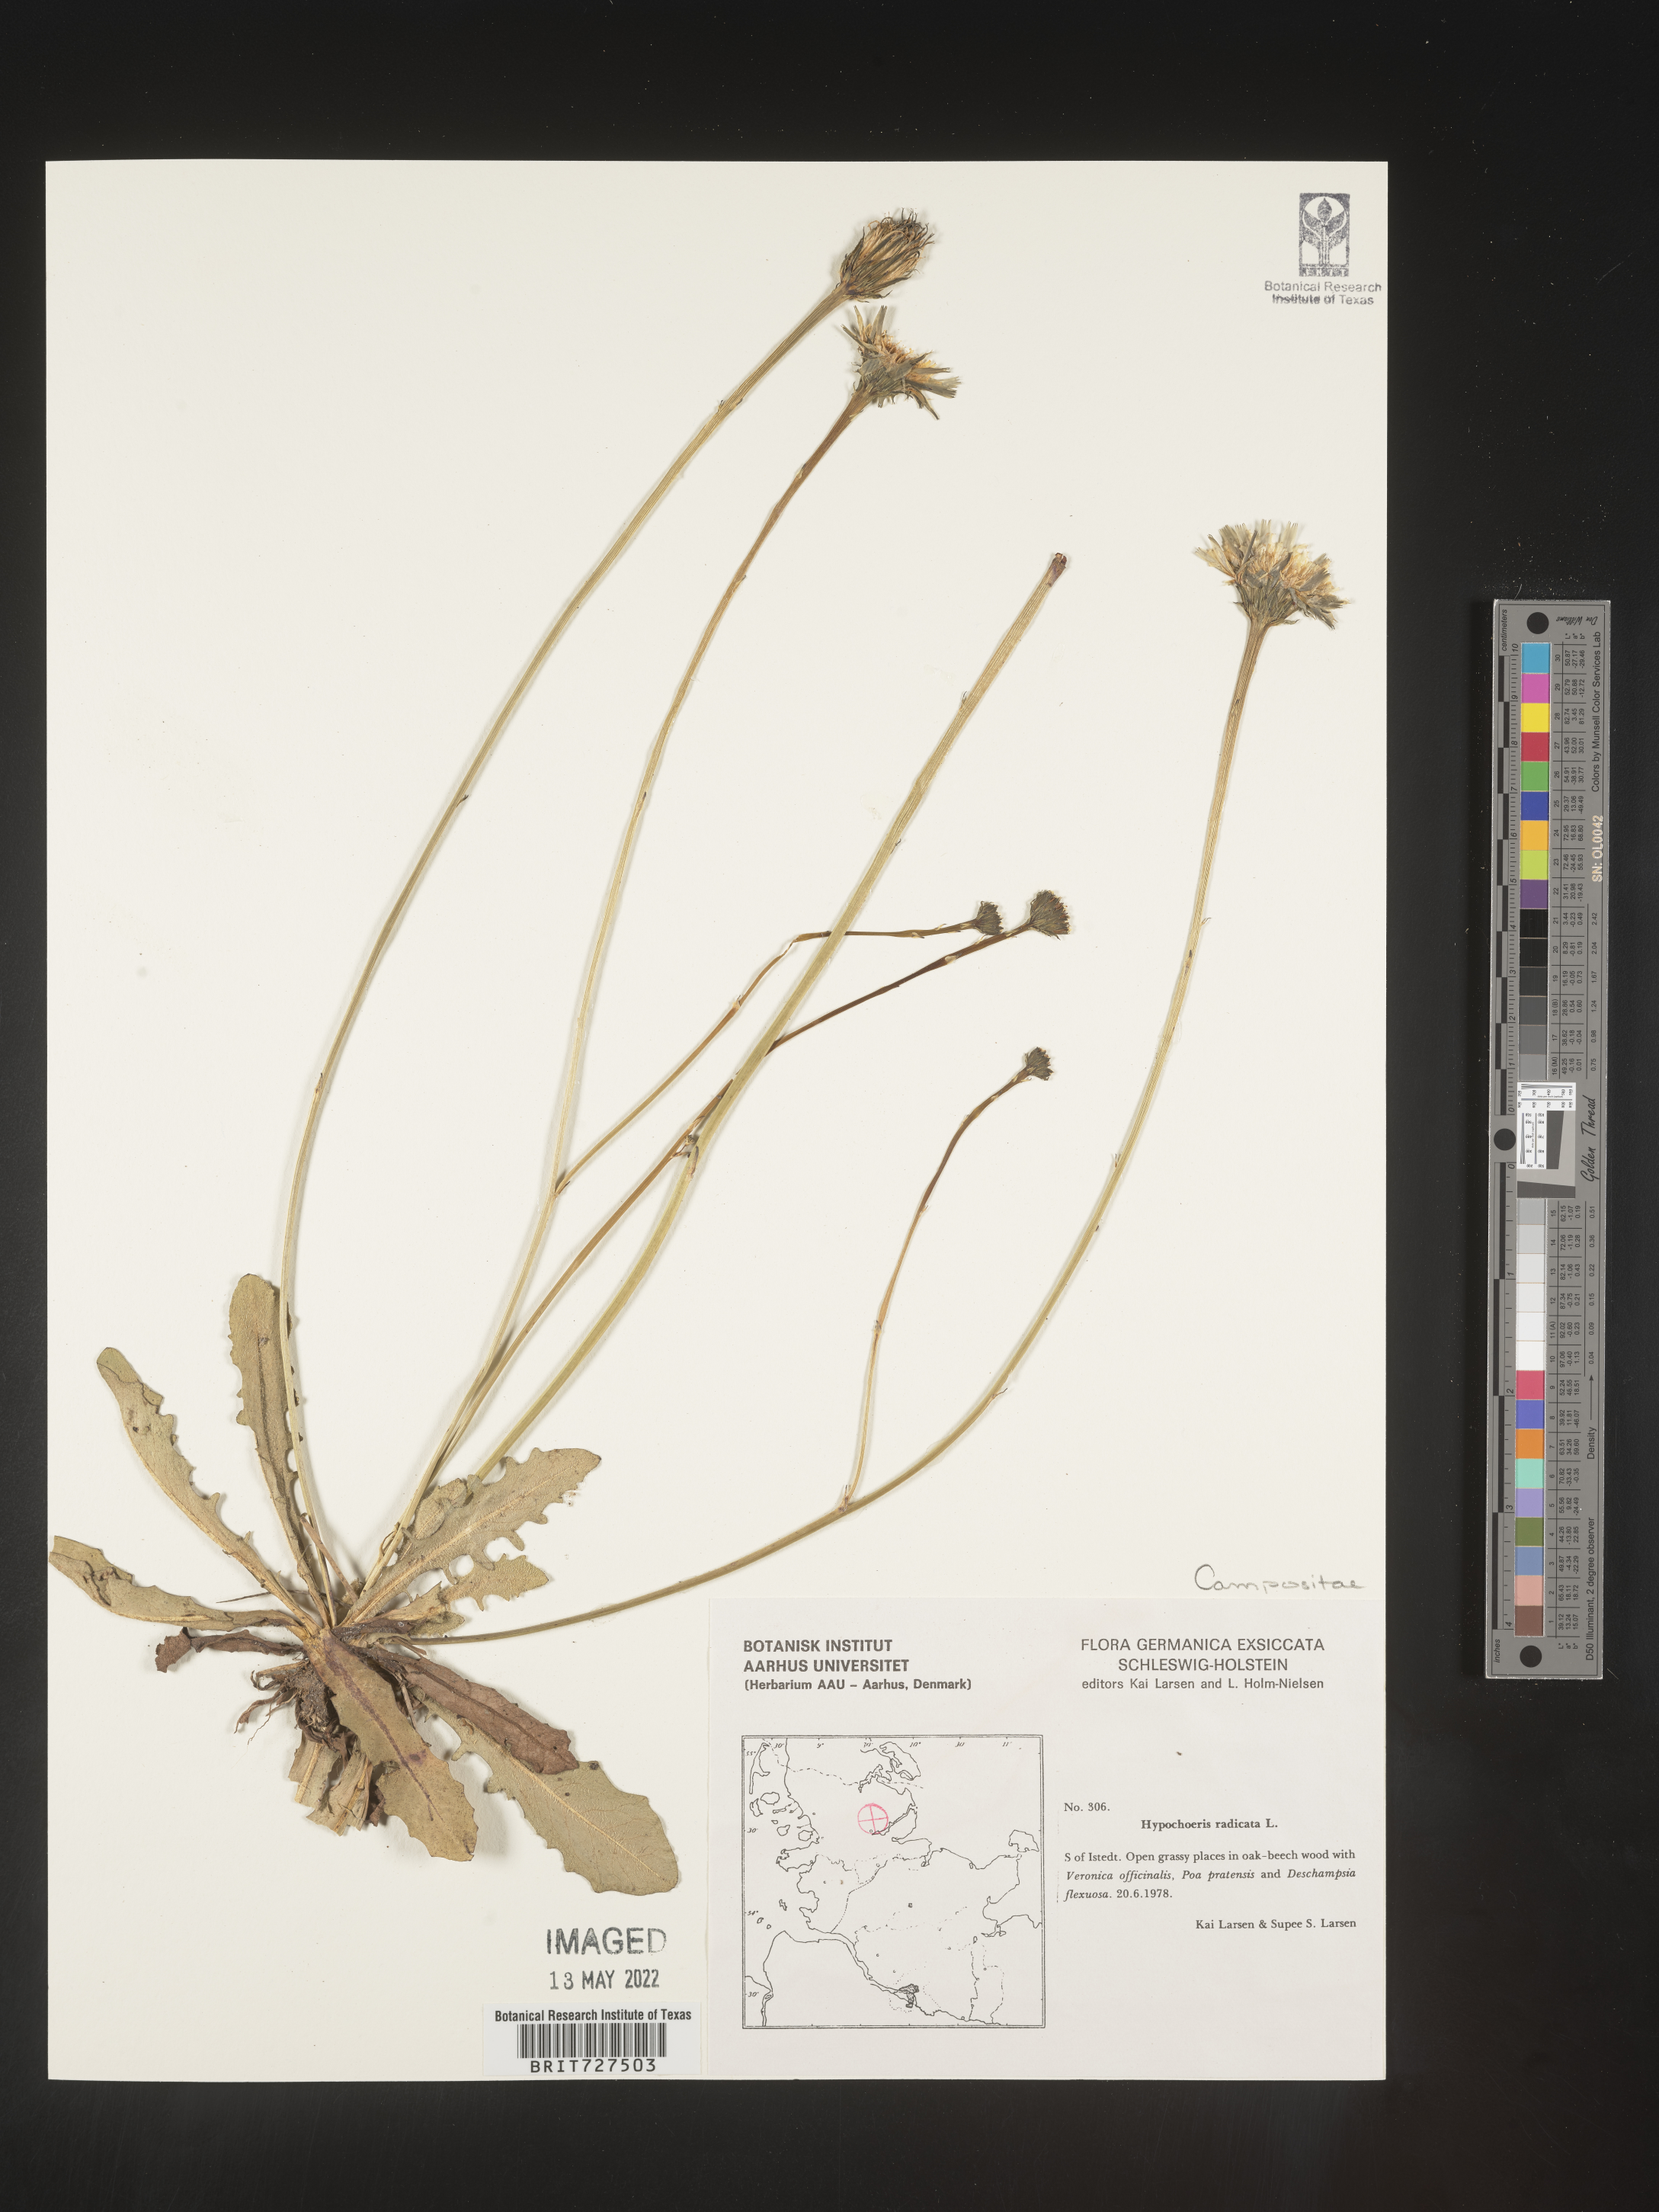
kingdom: Plantae
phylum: Tracheophyta
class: Magnoliopsida
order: Asterales
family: Asteraceae
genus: Hypochaeris
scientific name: Hypochaeris
